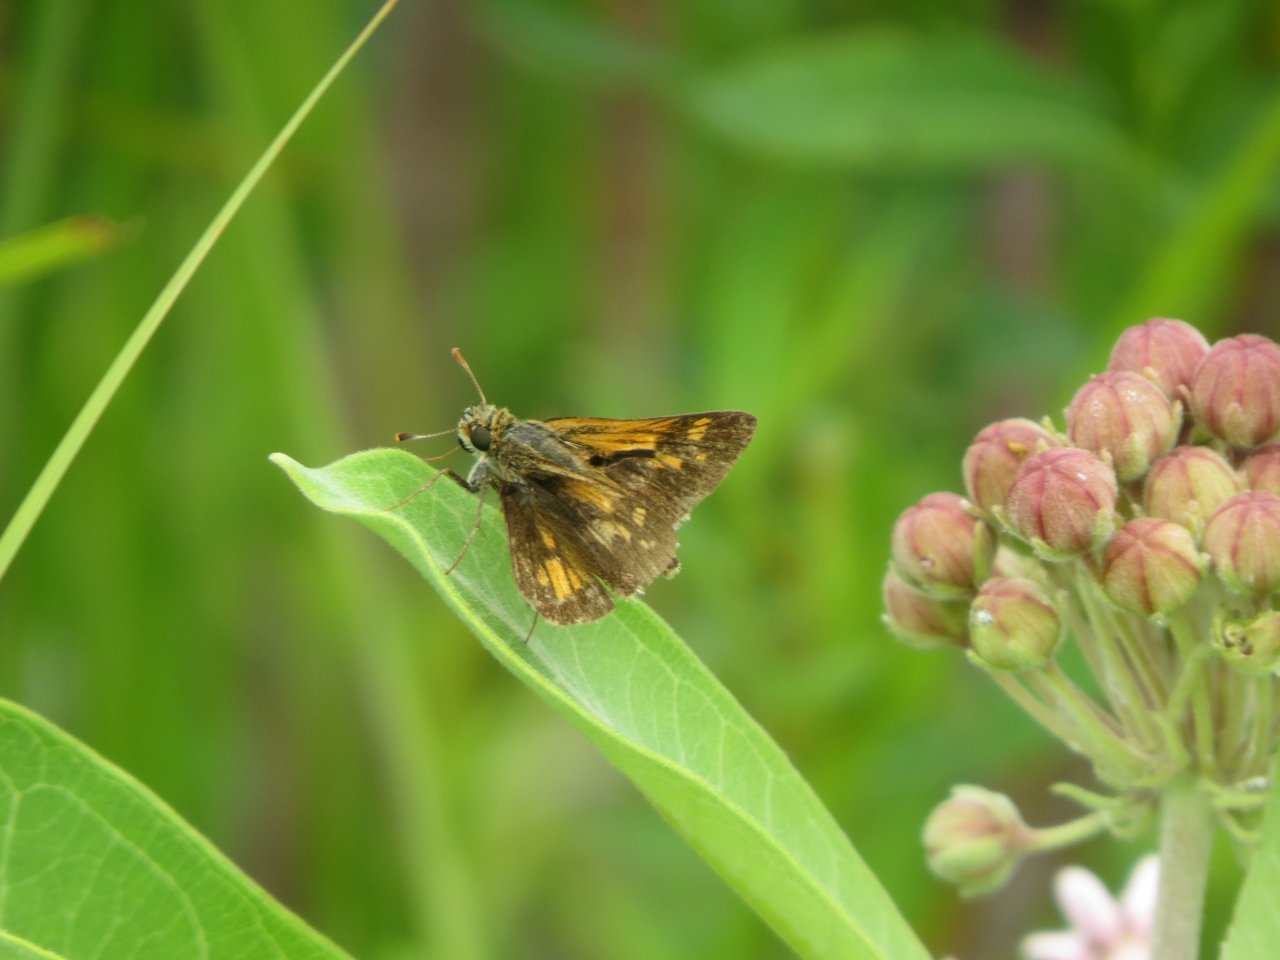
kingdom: Animalia
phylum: Arthropoda
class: Insecta
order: Lepidoptera
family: Hesperiidae
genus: Polites
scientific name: Polites coras
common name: Peck's Skipper
